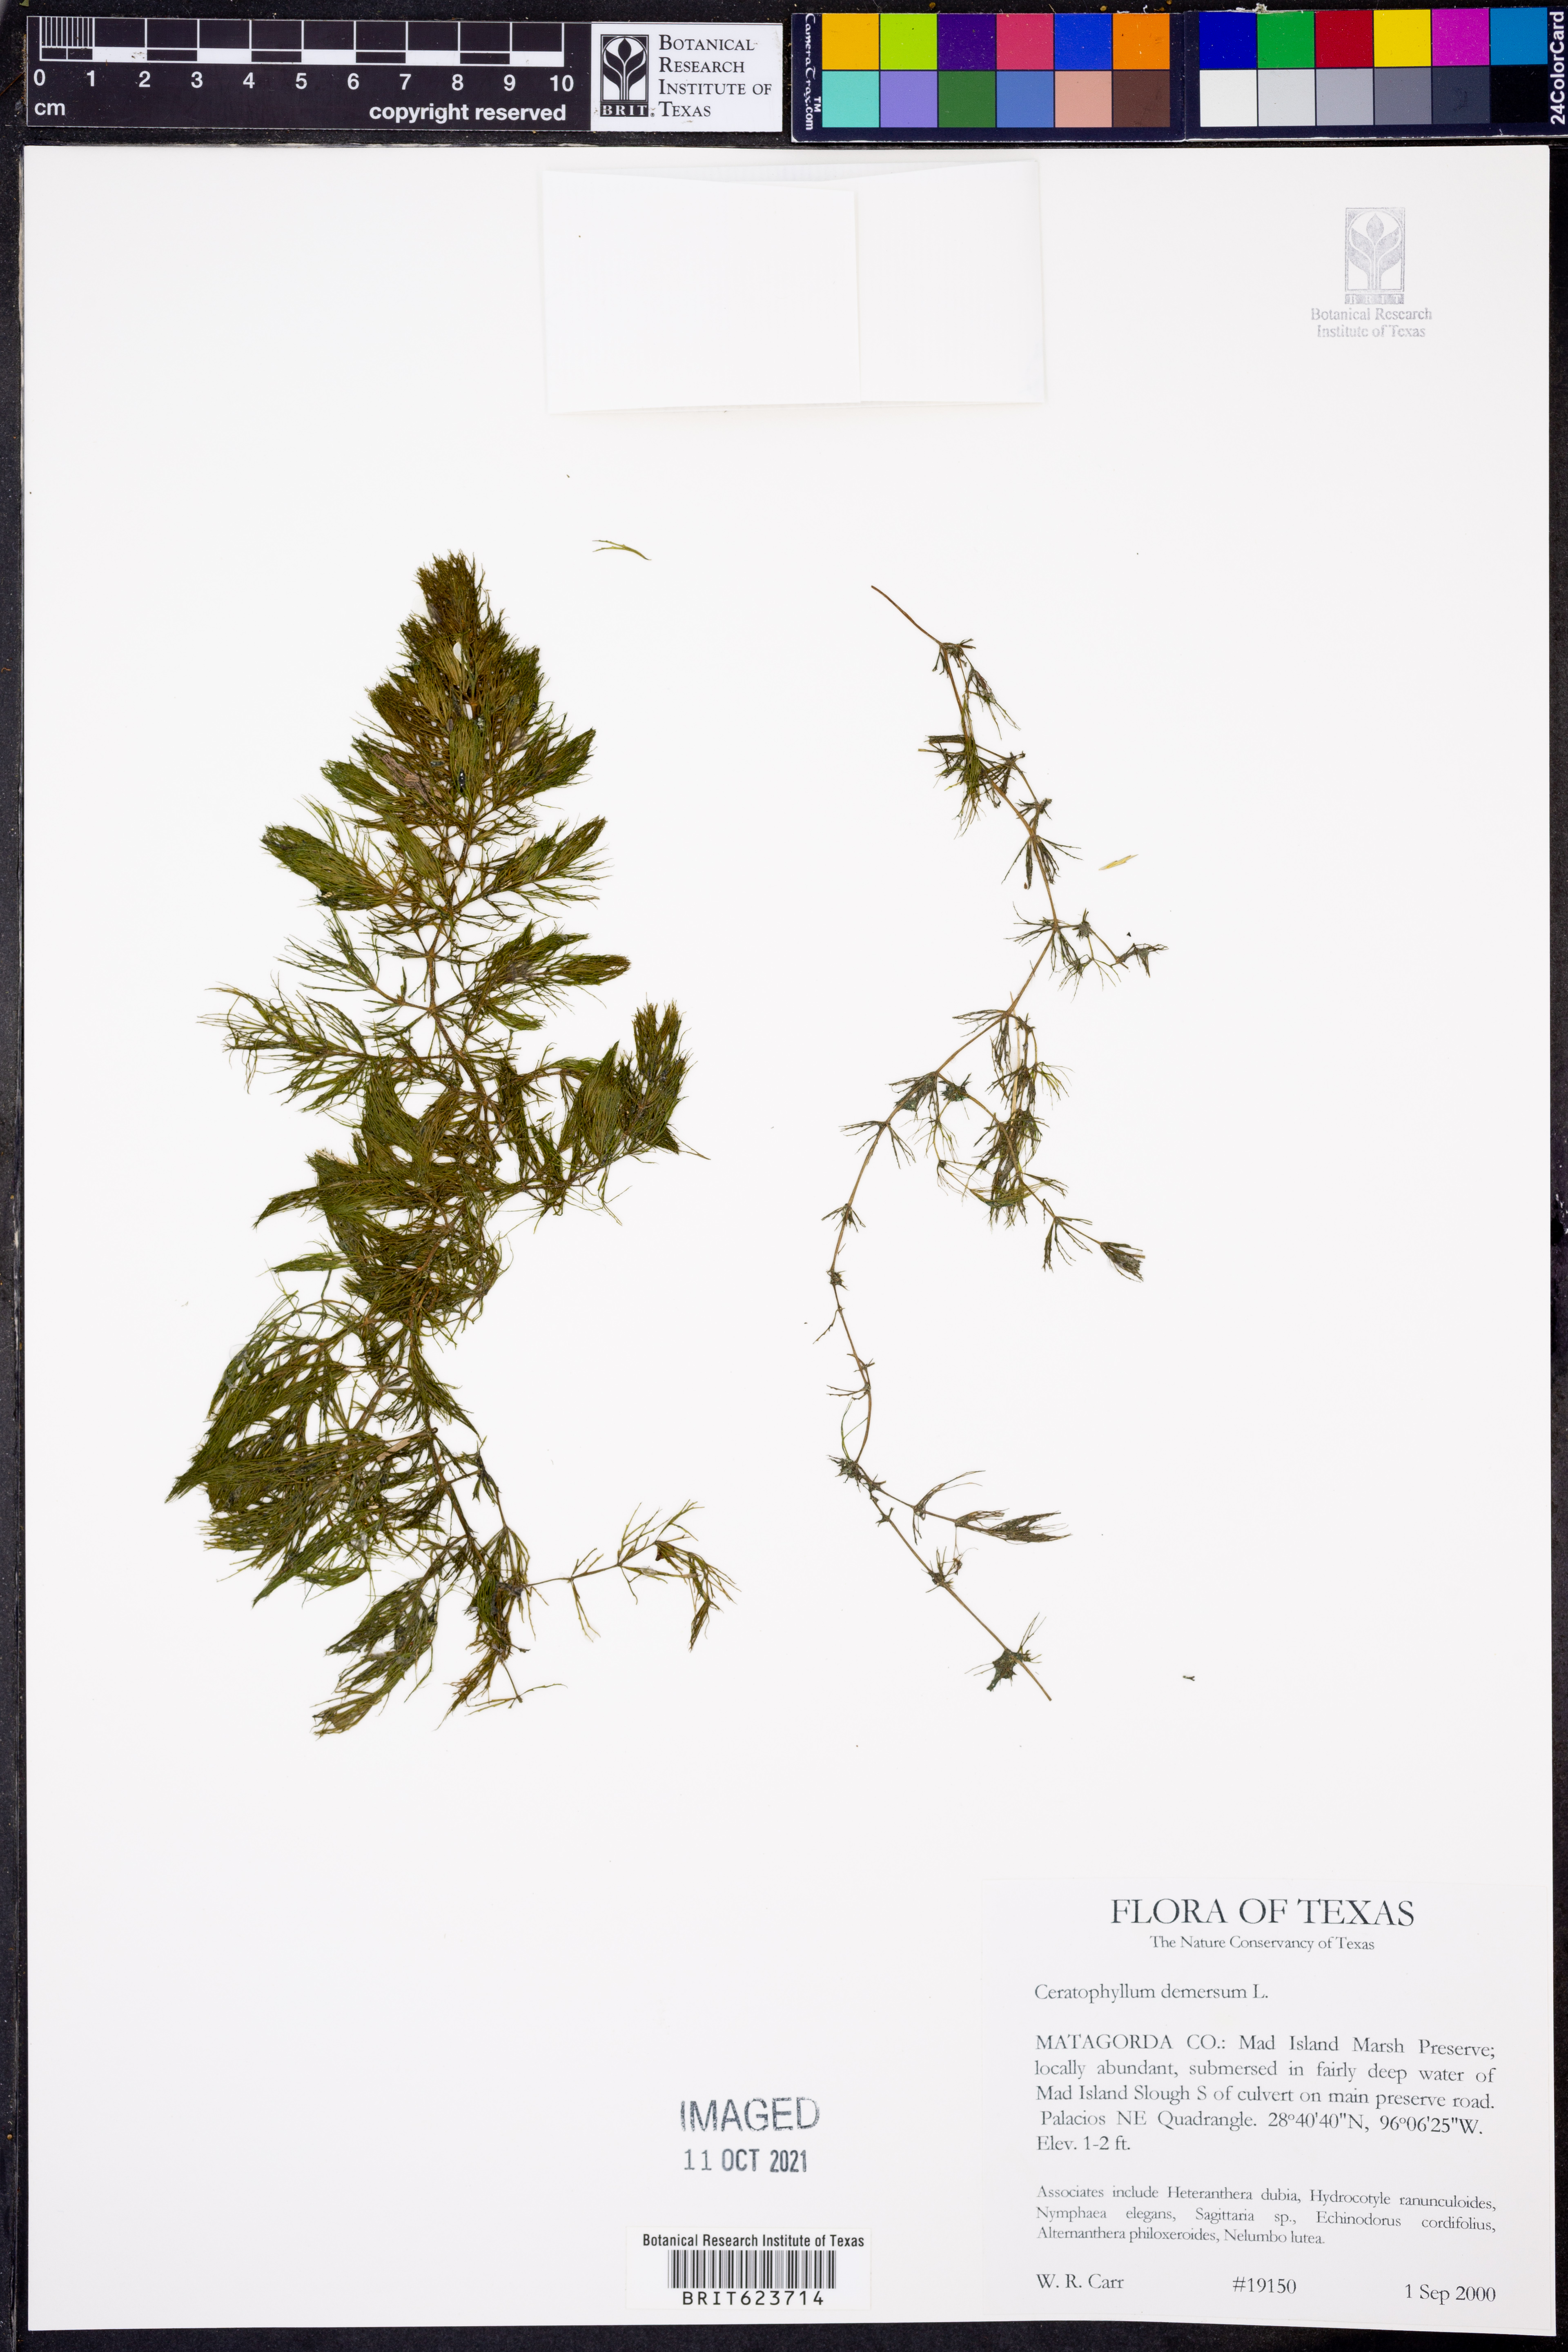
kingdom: Plantae
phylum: Tracheophyta
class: Magnoliopsida
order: Ceratophyllales
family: Ceratophyllaceae
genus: Ceratophyllum
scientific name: Ceratophyllum demersum
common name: Rigid hornwort
